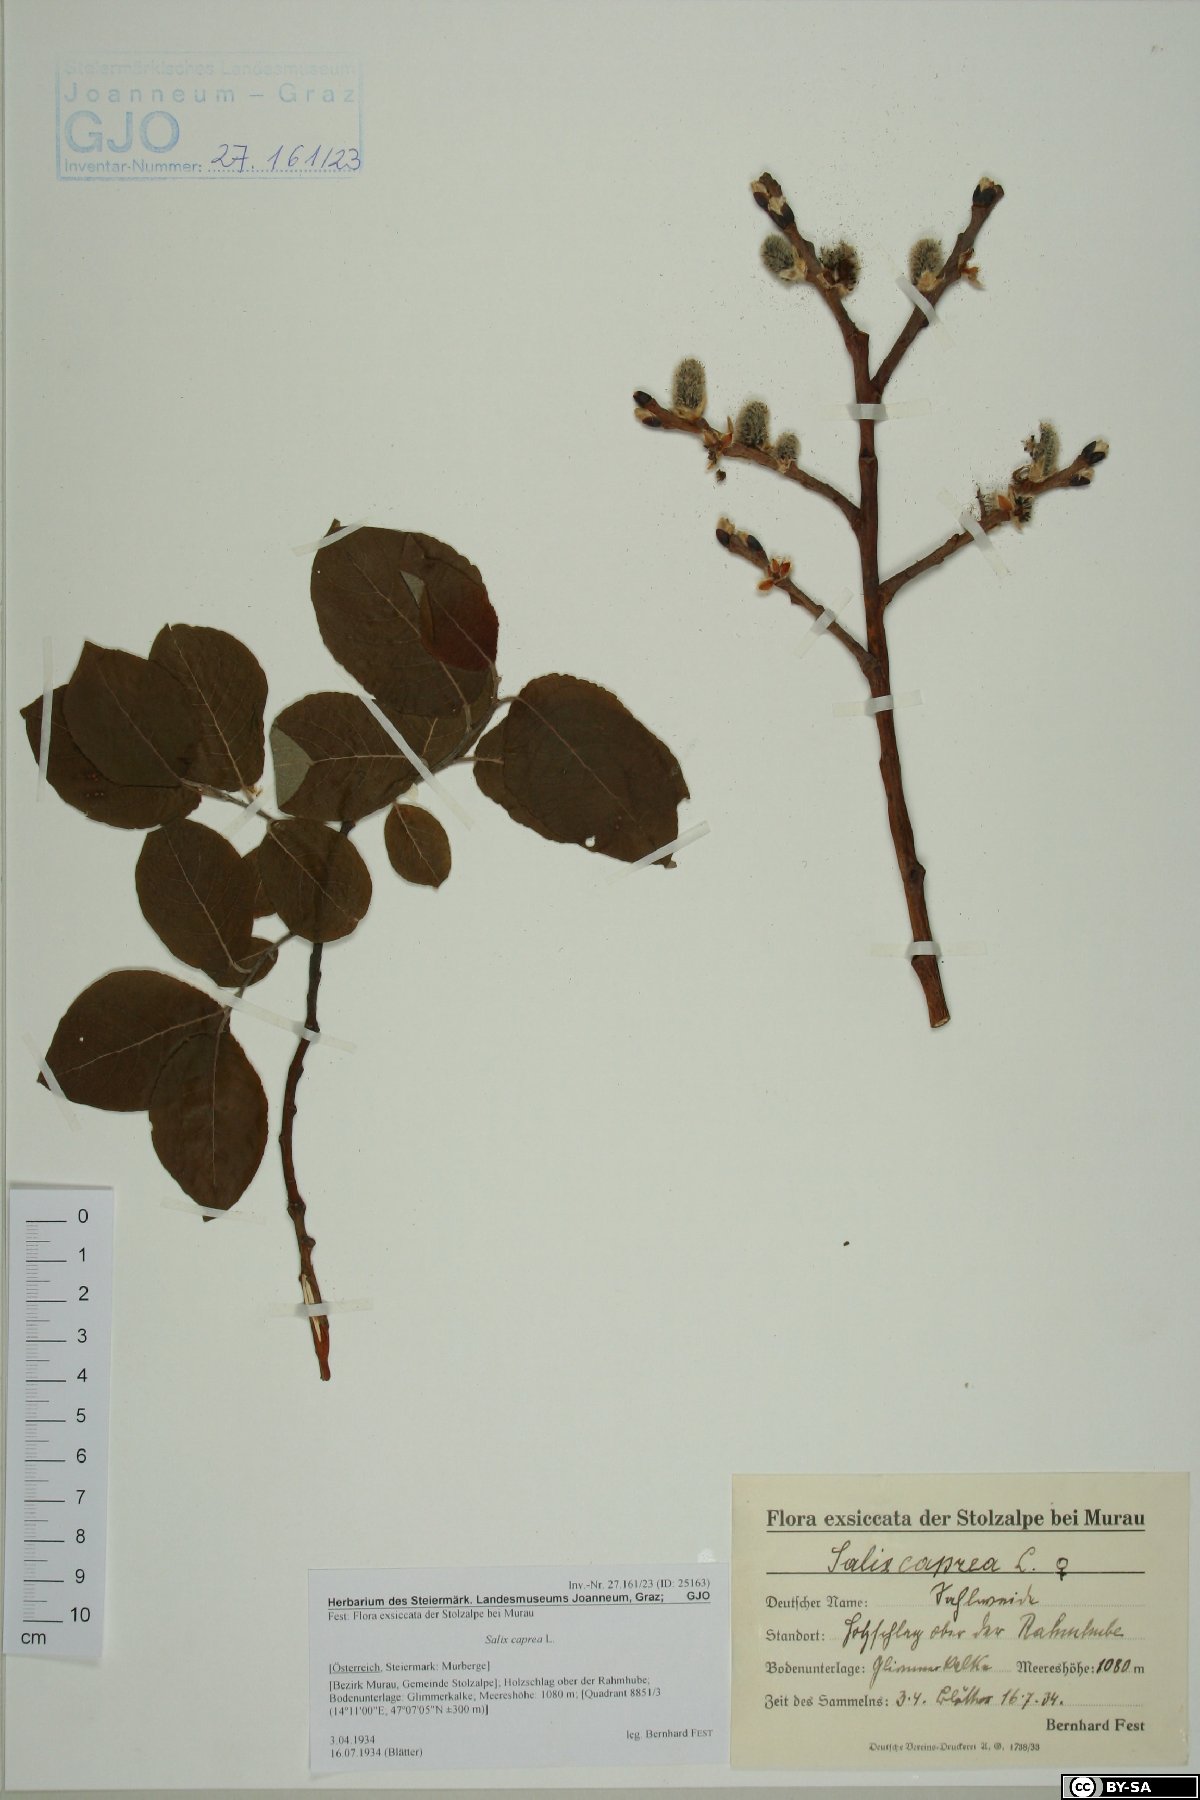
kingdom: Plantae
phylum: Tracheophyta
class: Magnoliopsida
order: Malpighiales
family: Salicaceae
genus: Salix
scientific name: Salix caprea
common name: Goat willow
